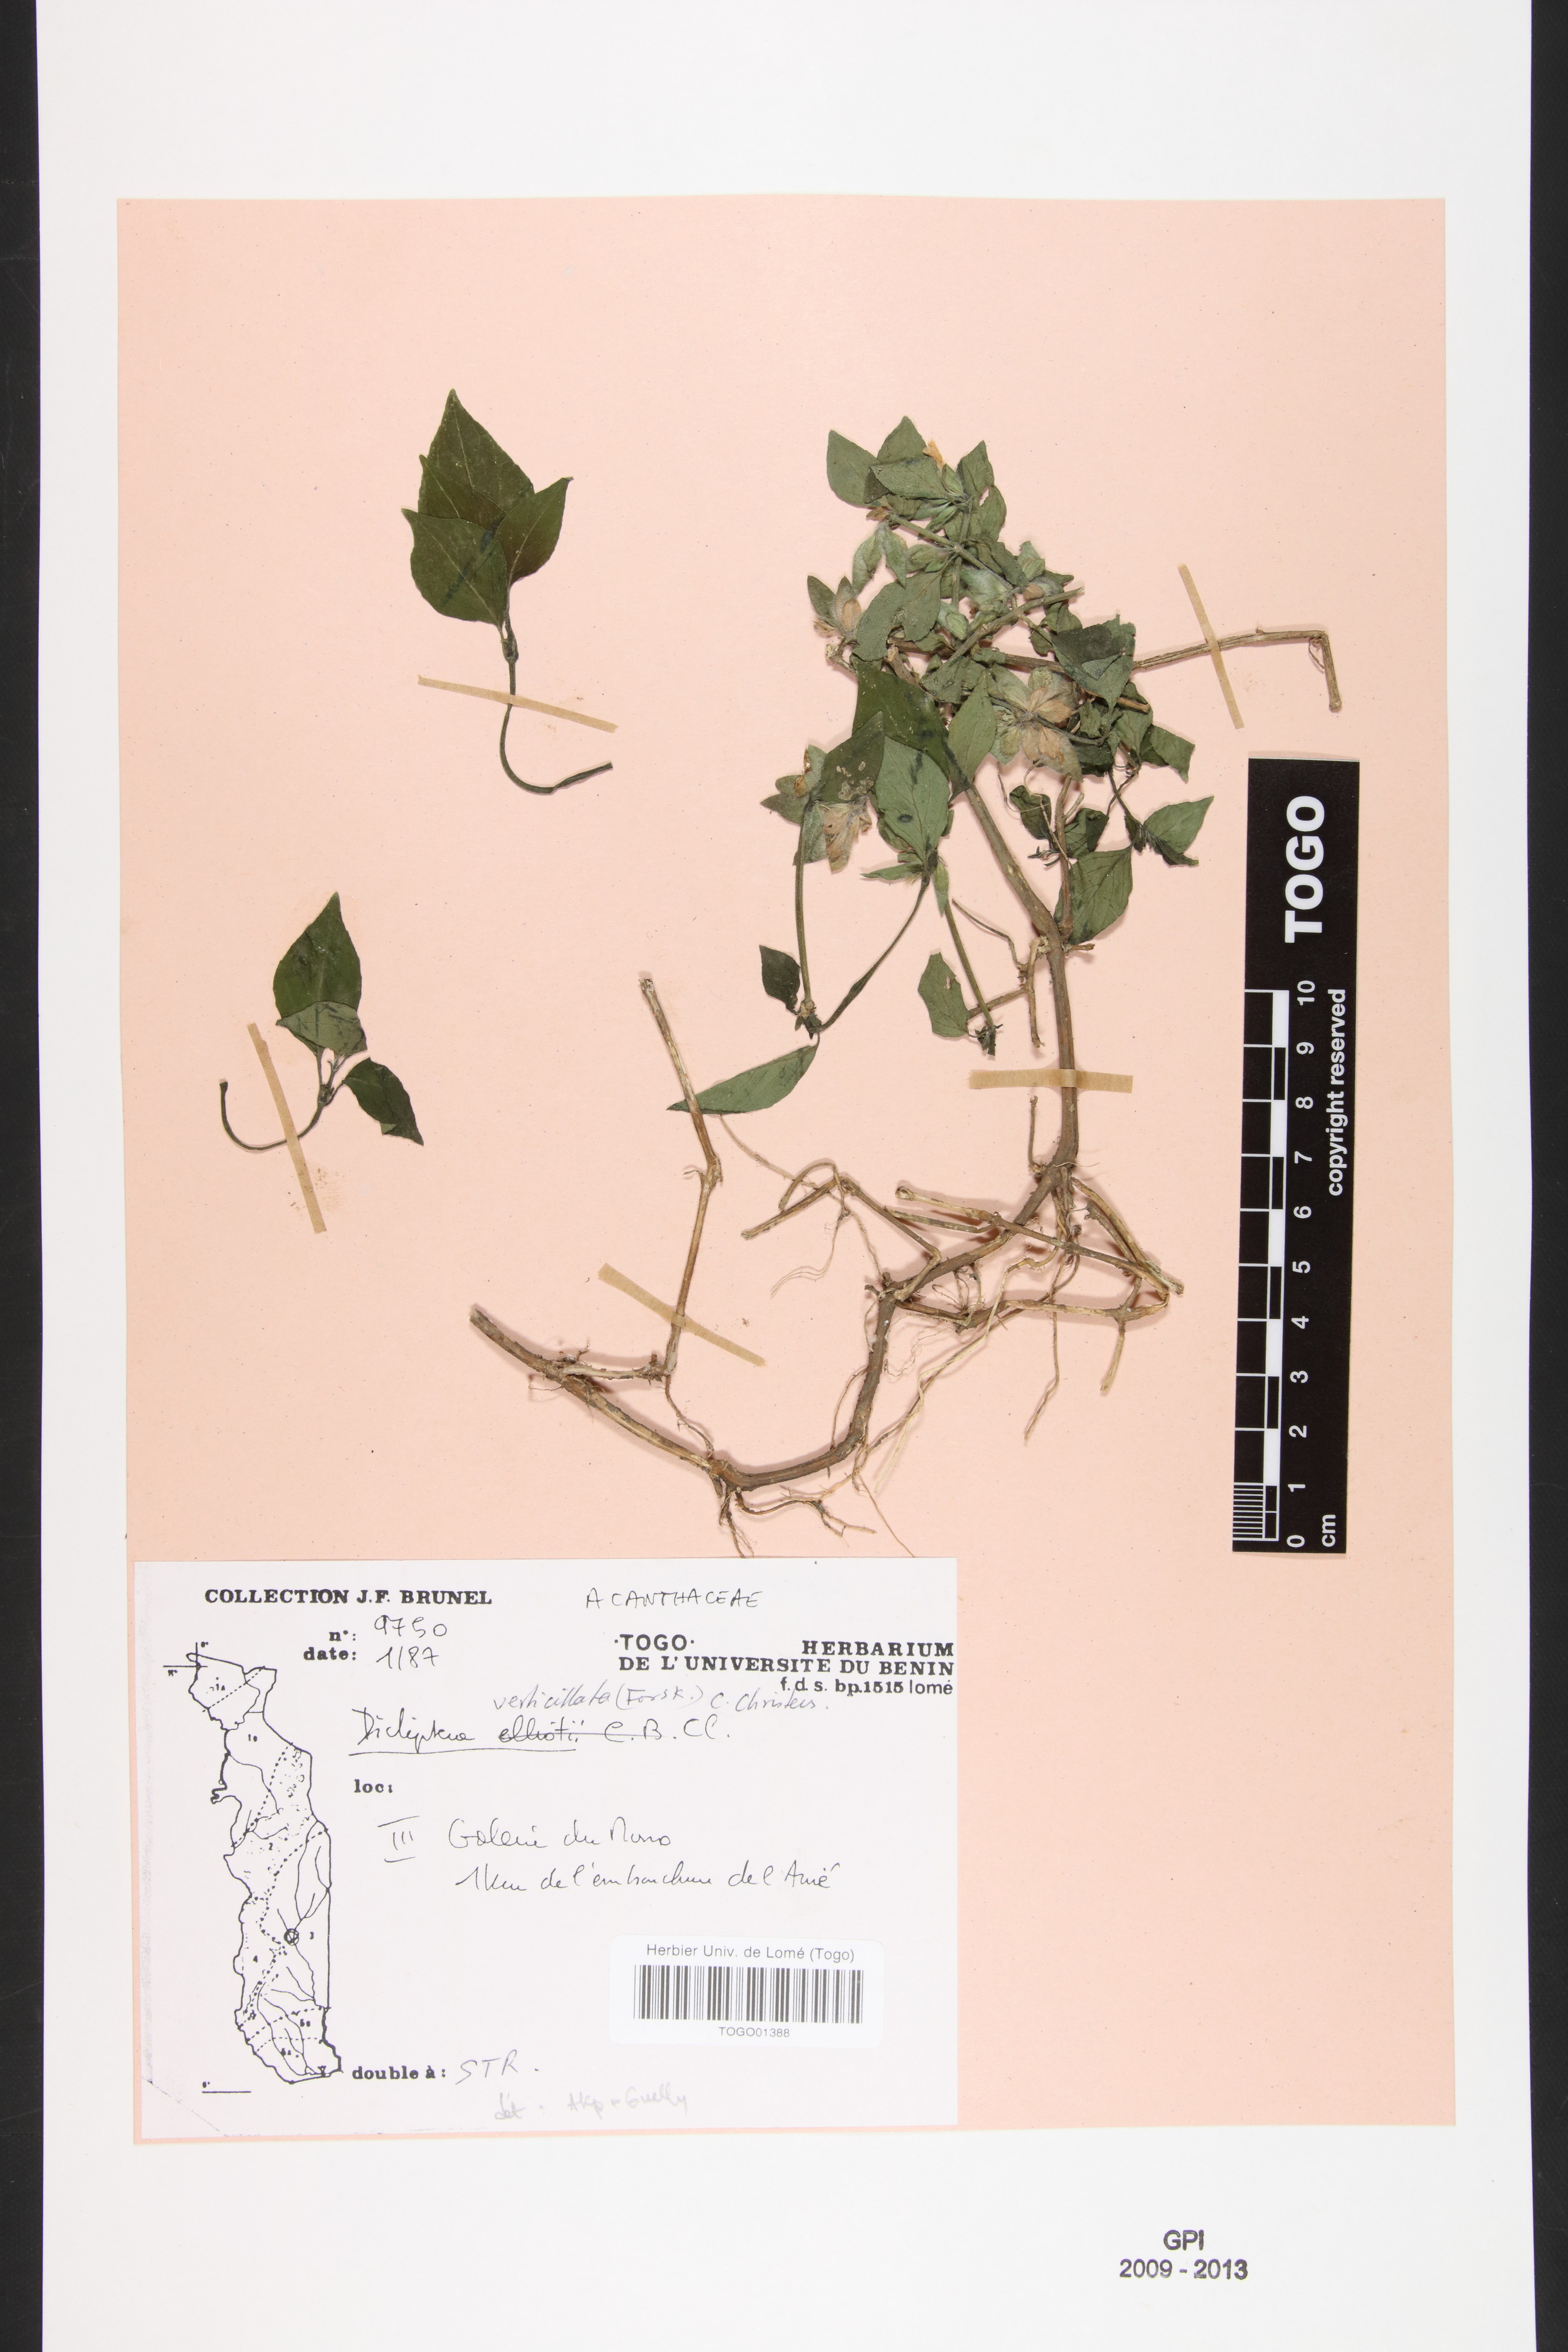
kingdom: Plantae
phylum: Tracheophyta
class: Magnoliopsida
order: Lamiales
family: Acanthaceae
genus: Dicliptera
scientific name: Dicliptera verticillata
